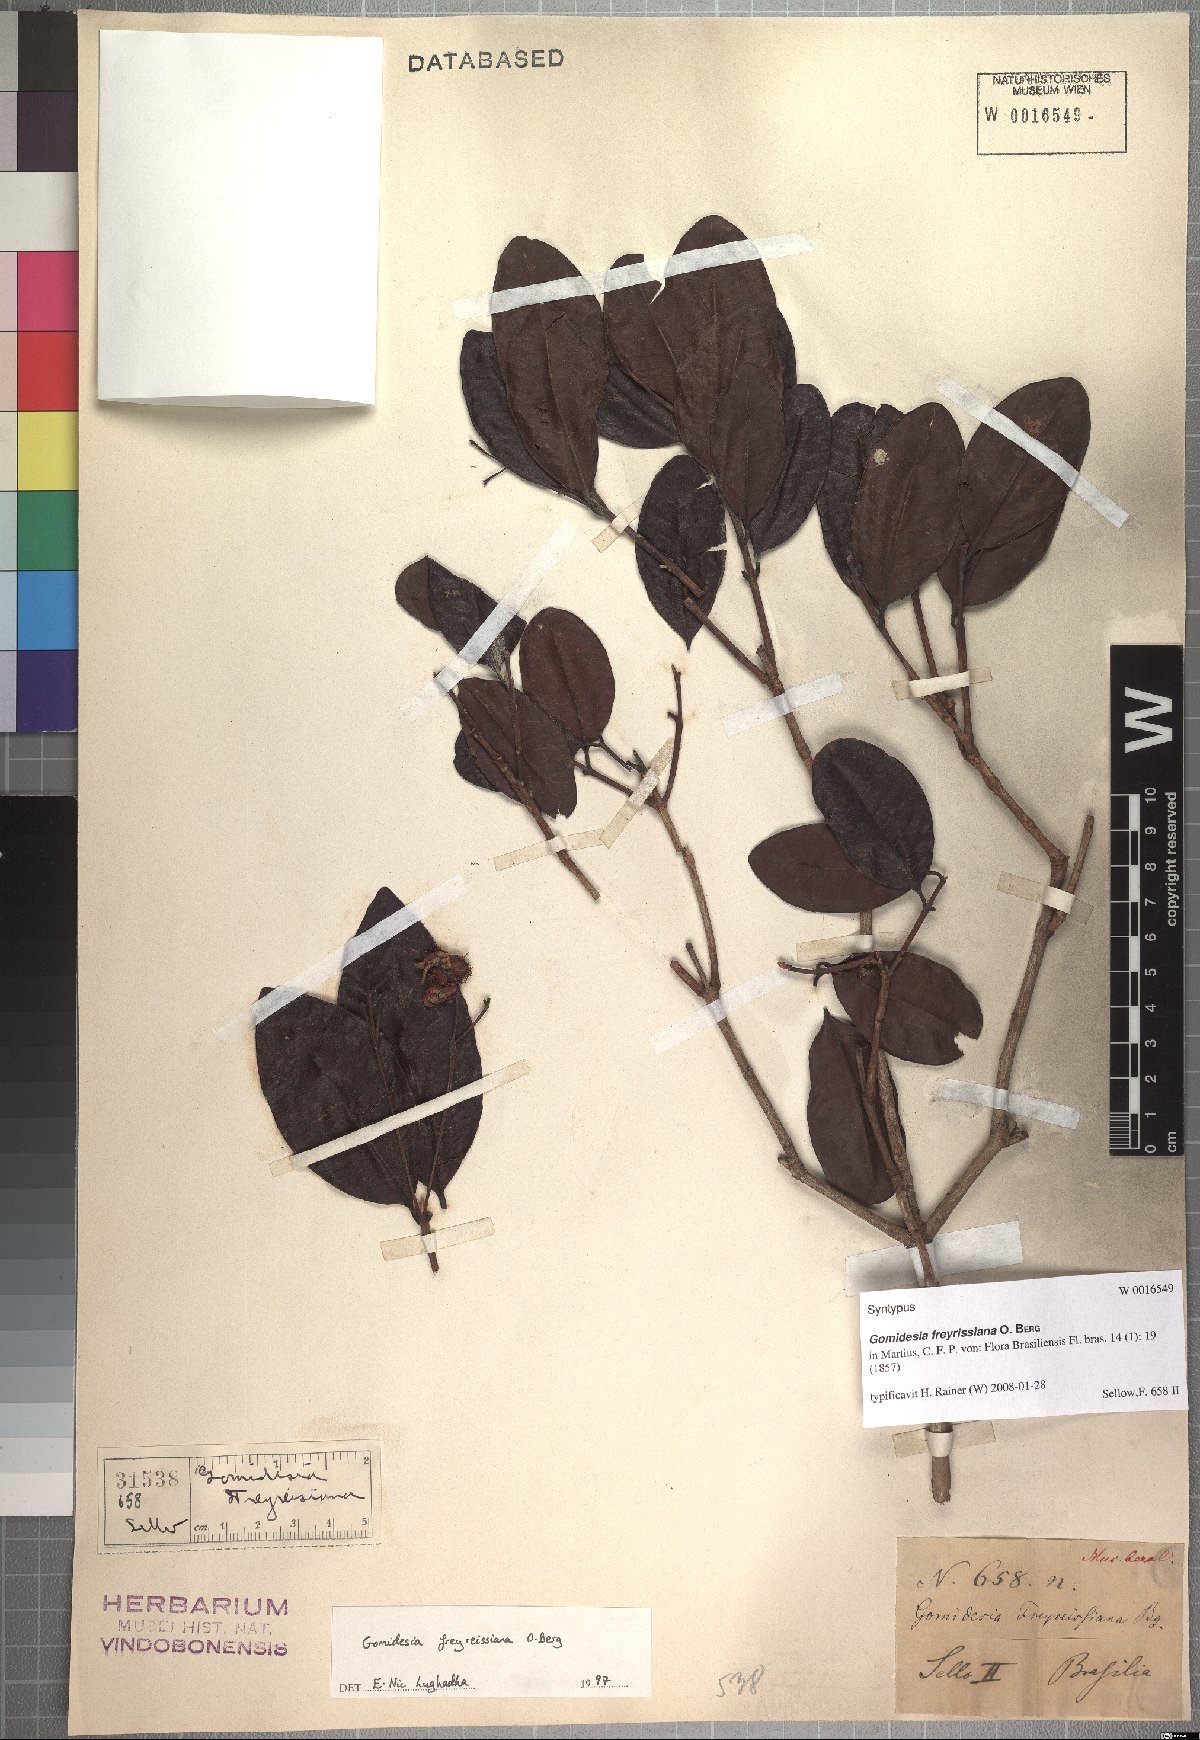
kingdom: Plantae
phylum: Tracheophyta
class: Magnoliopsida
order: Myrtales
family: Myrtaceae
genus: Myrcia
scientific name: Myrcia freyreissiana
